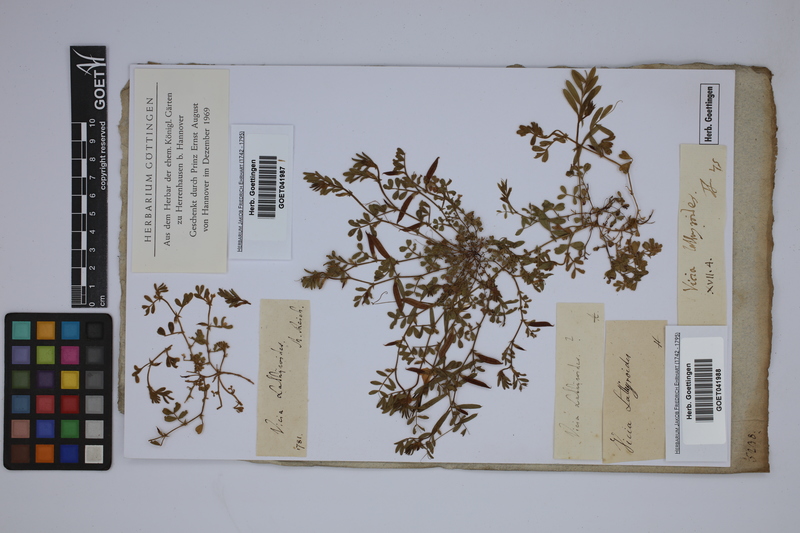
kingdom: Plantae
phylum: Tracheophyta
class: Magnoliopsida
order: Fabales
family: Fabaceae
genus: Vicia
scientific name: Vicia lathyroides
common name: Spring vetch
